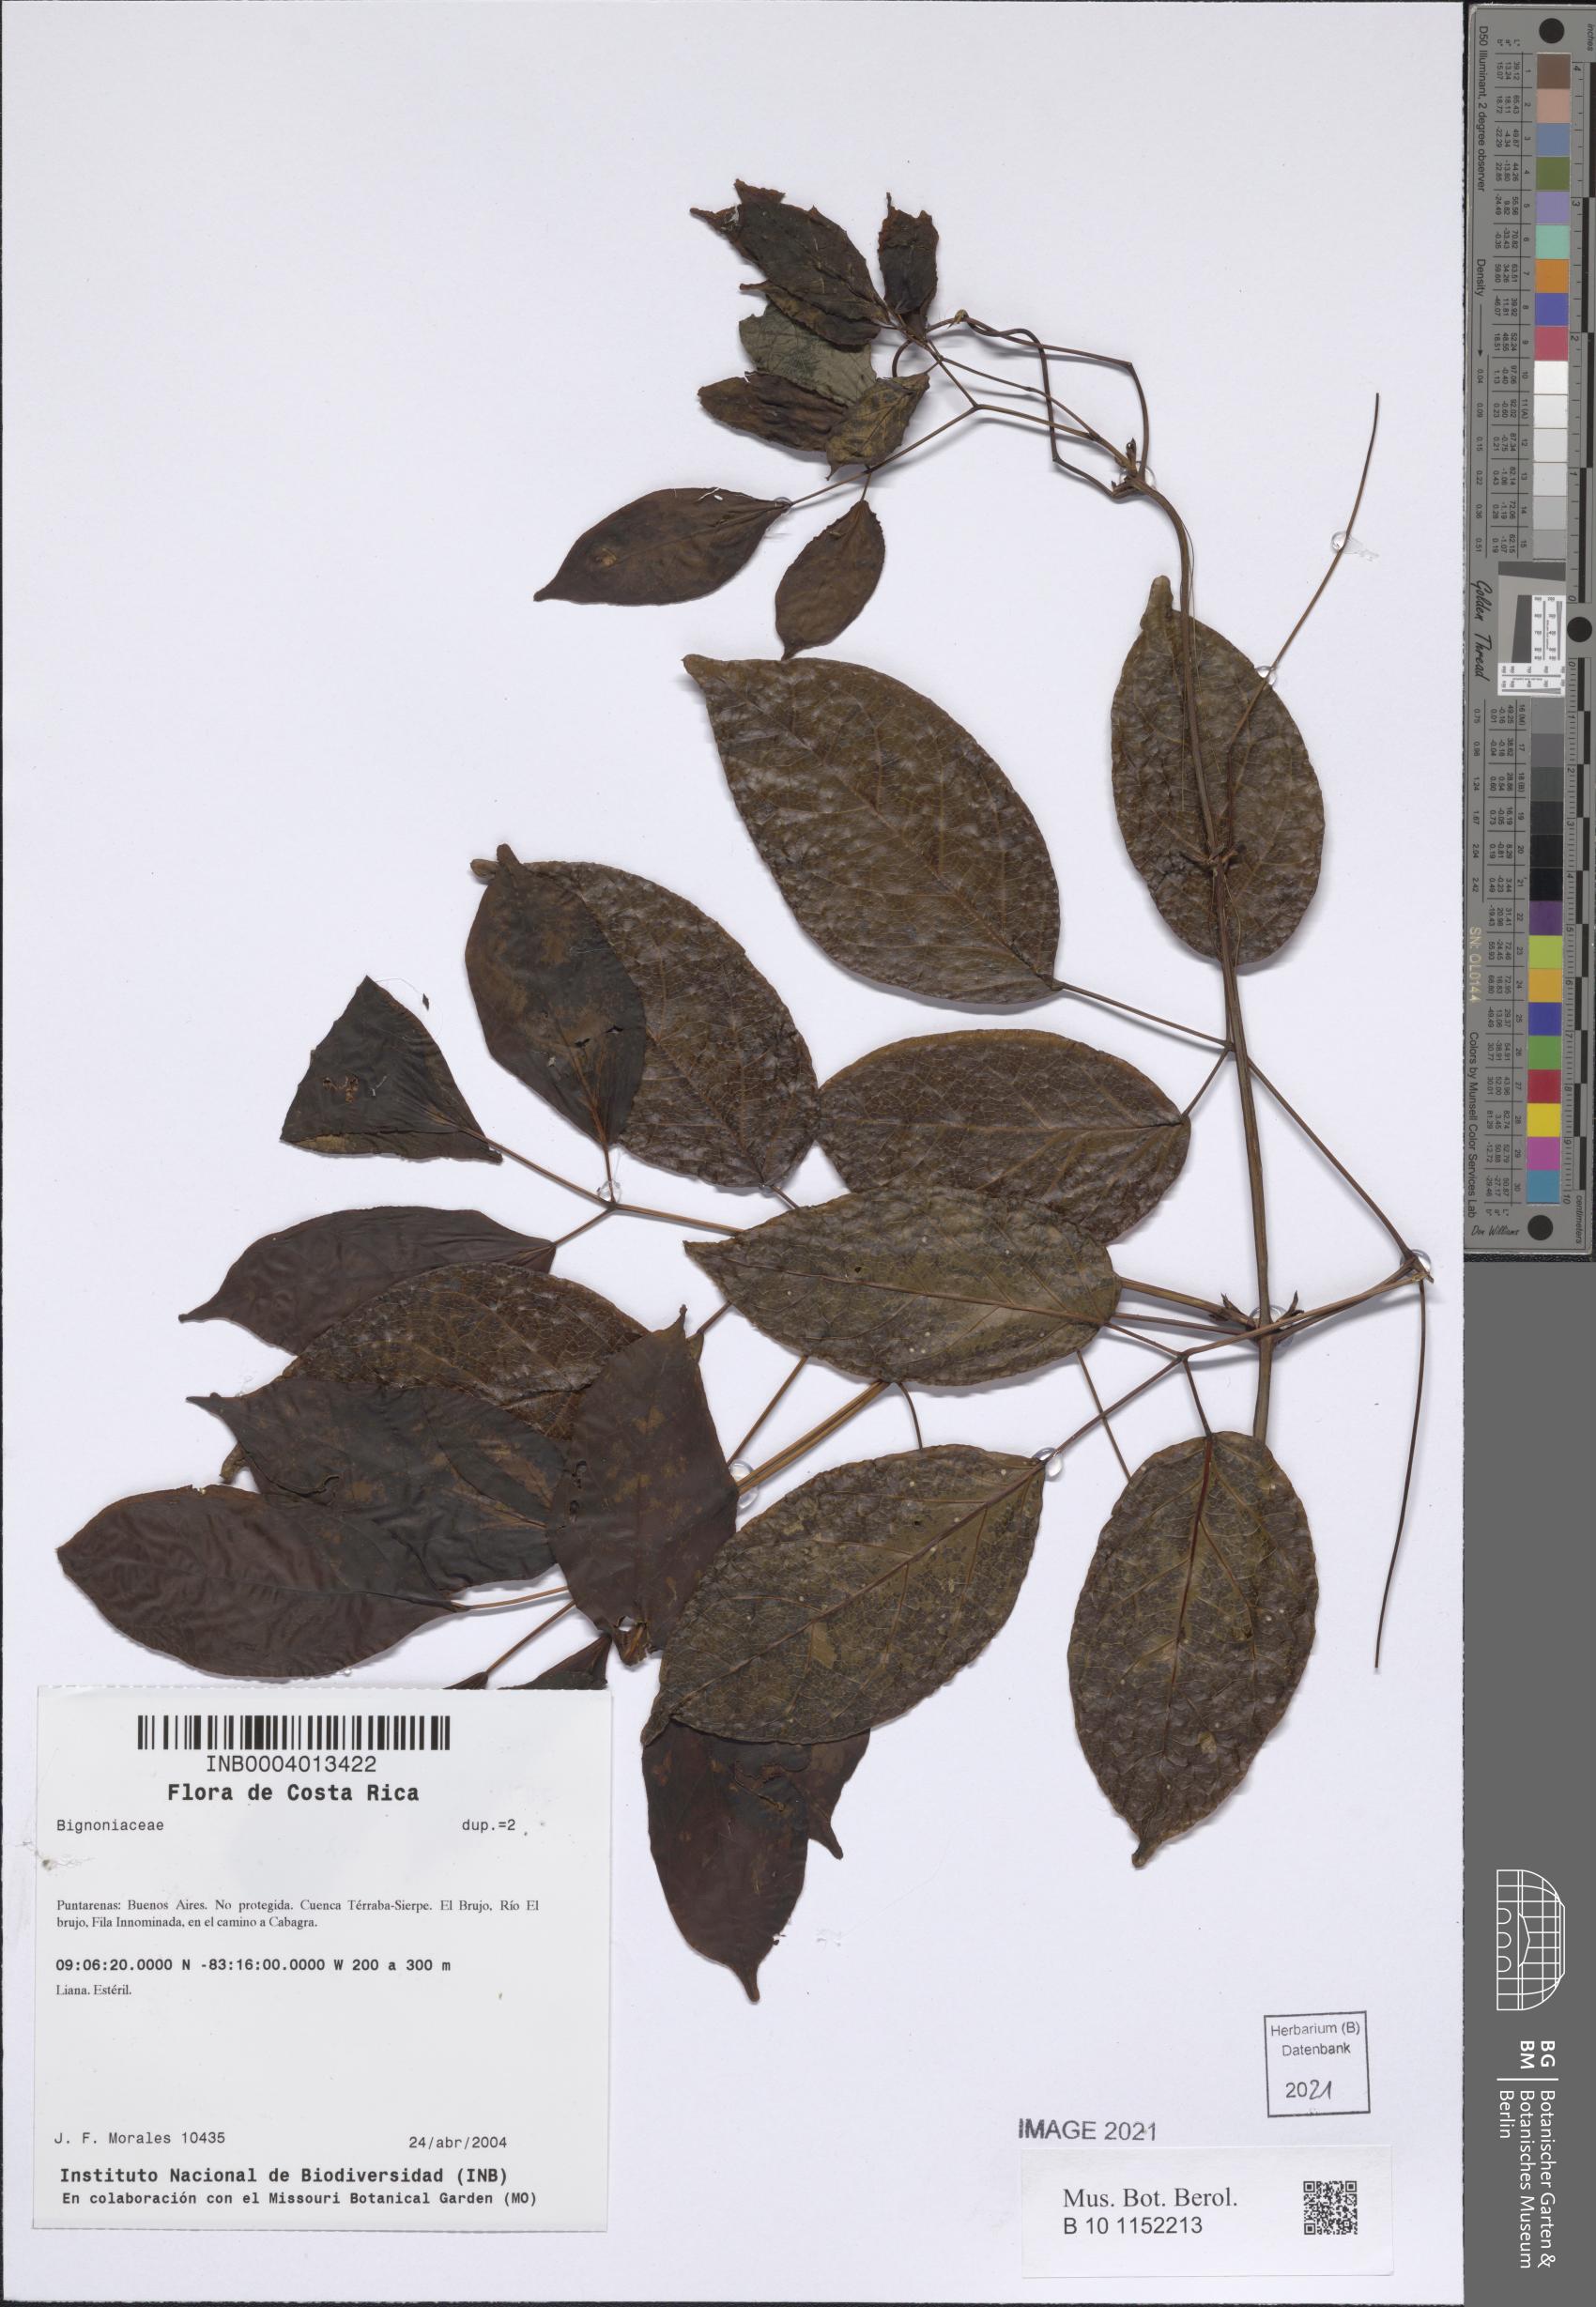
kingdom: Plantae
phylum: Tracheophyta
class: Magnoliopsida
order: Lamiales
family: Bignoniaceae
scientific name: Bignoniaceae
